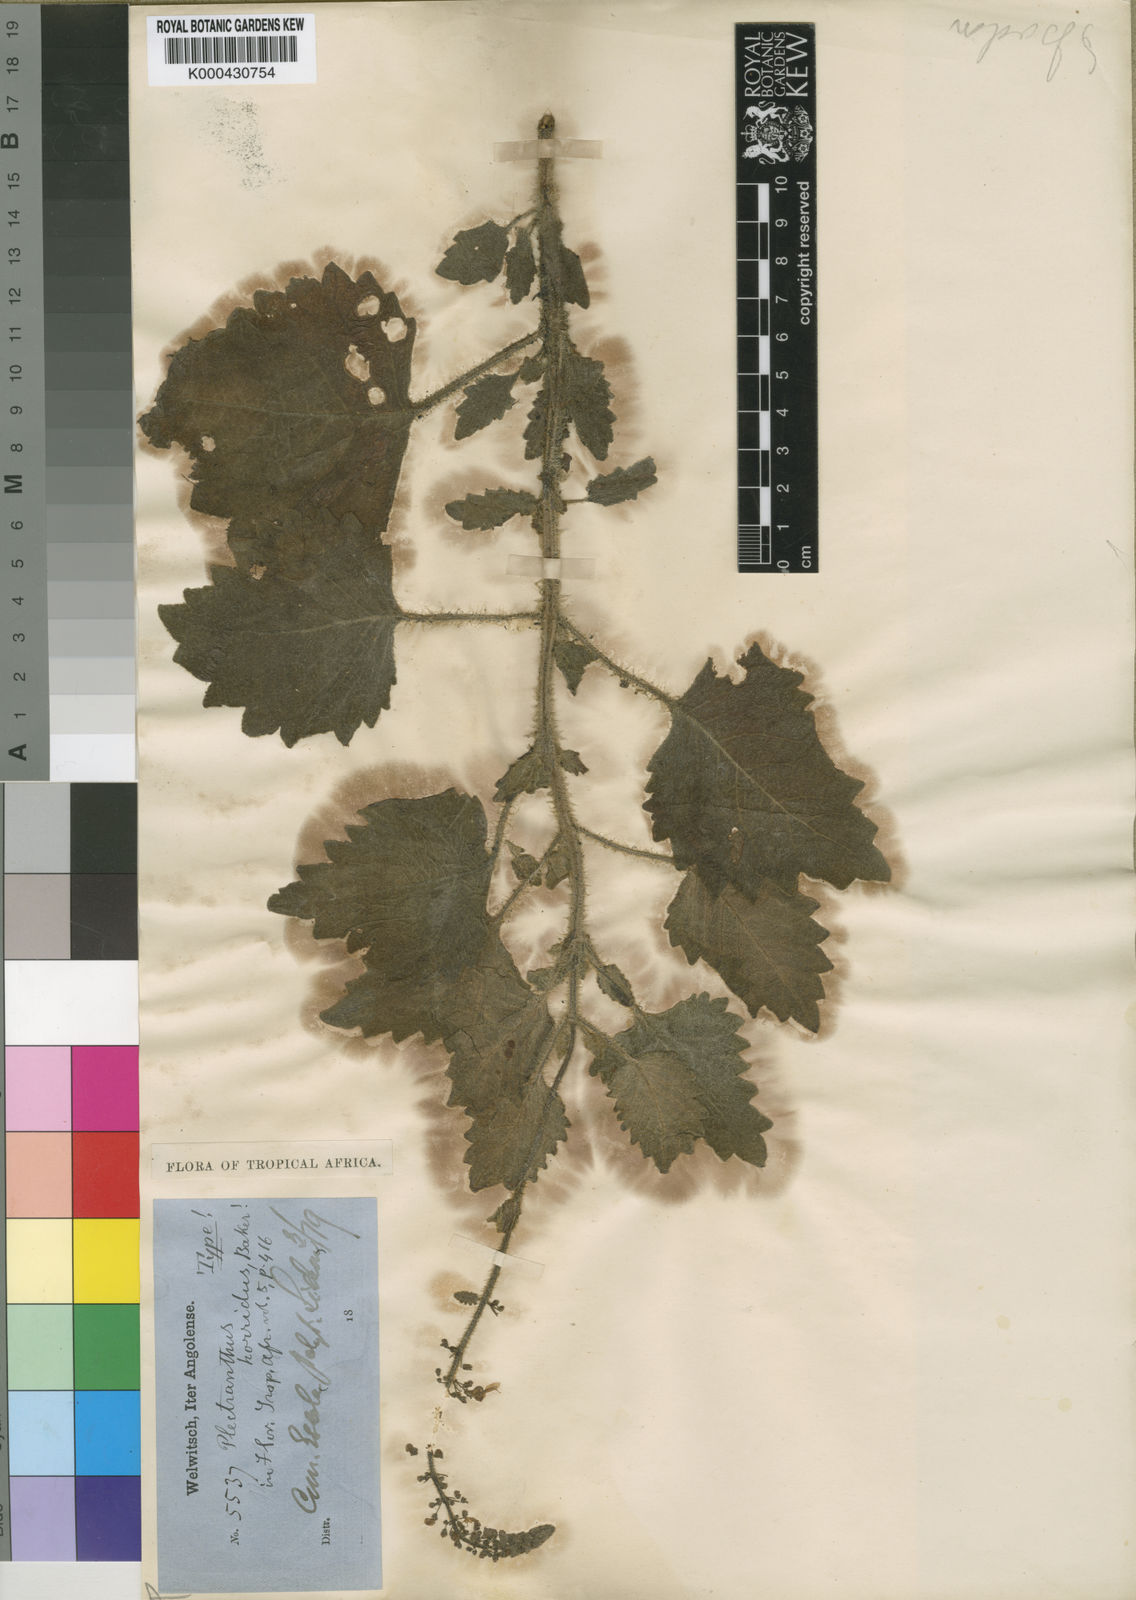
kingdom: Plantae
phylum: Tracheophyta
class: Magnoliopsida
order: Lamiales
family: Lamiaceae
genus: Coleus
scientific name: Coleus hadiensis
